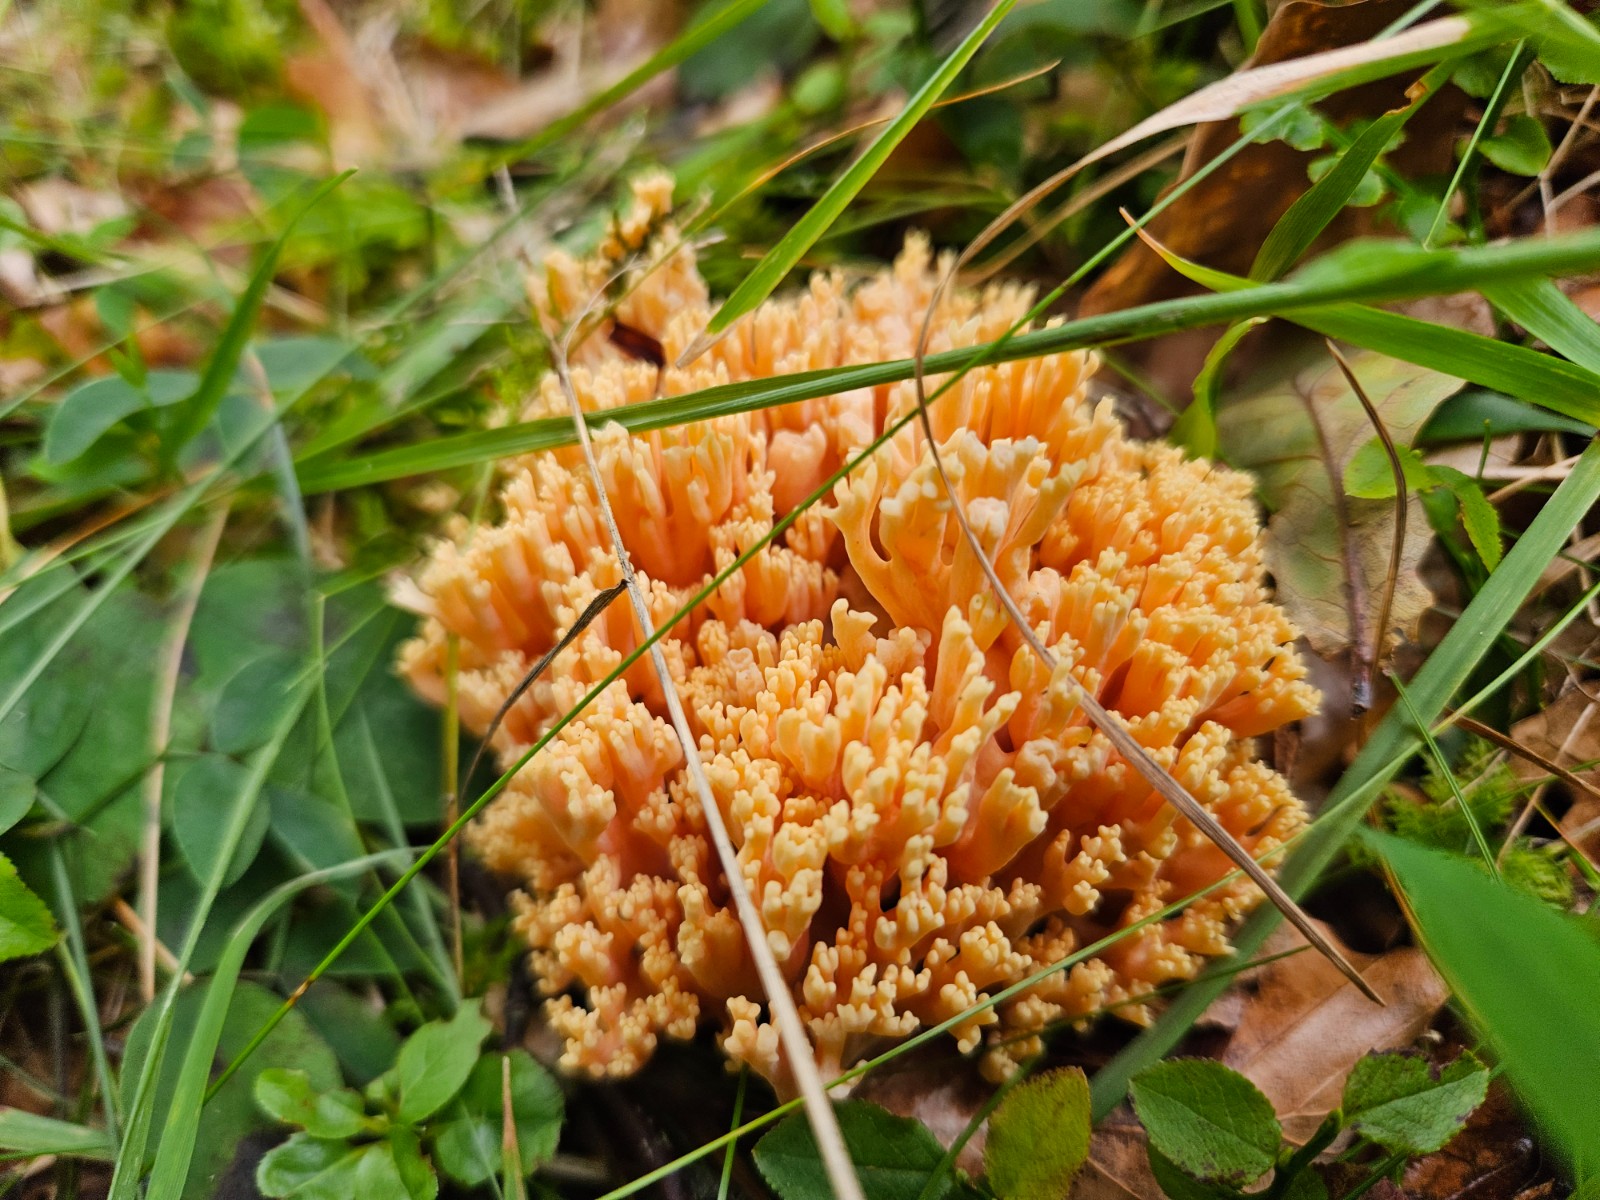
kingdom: Fungi
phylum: Basidiomycota
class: Agaricomycetes
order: Gomphales
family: Gomphaceae
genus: Ramaria
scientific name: Ramaria
